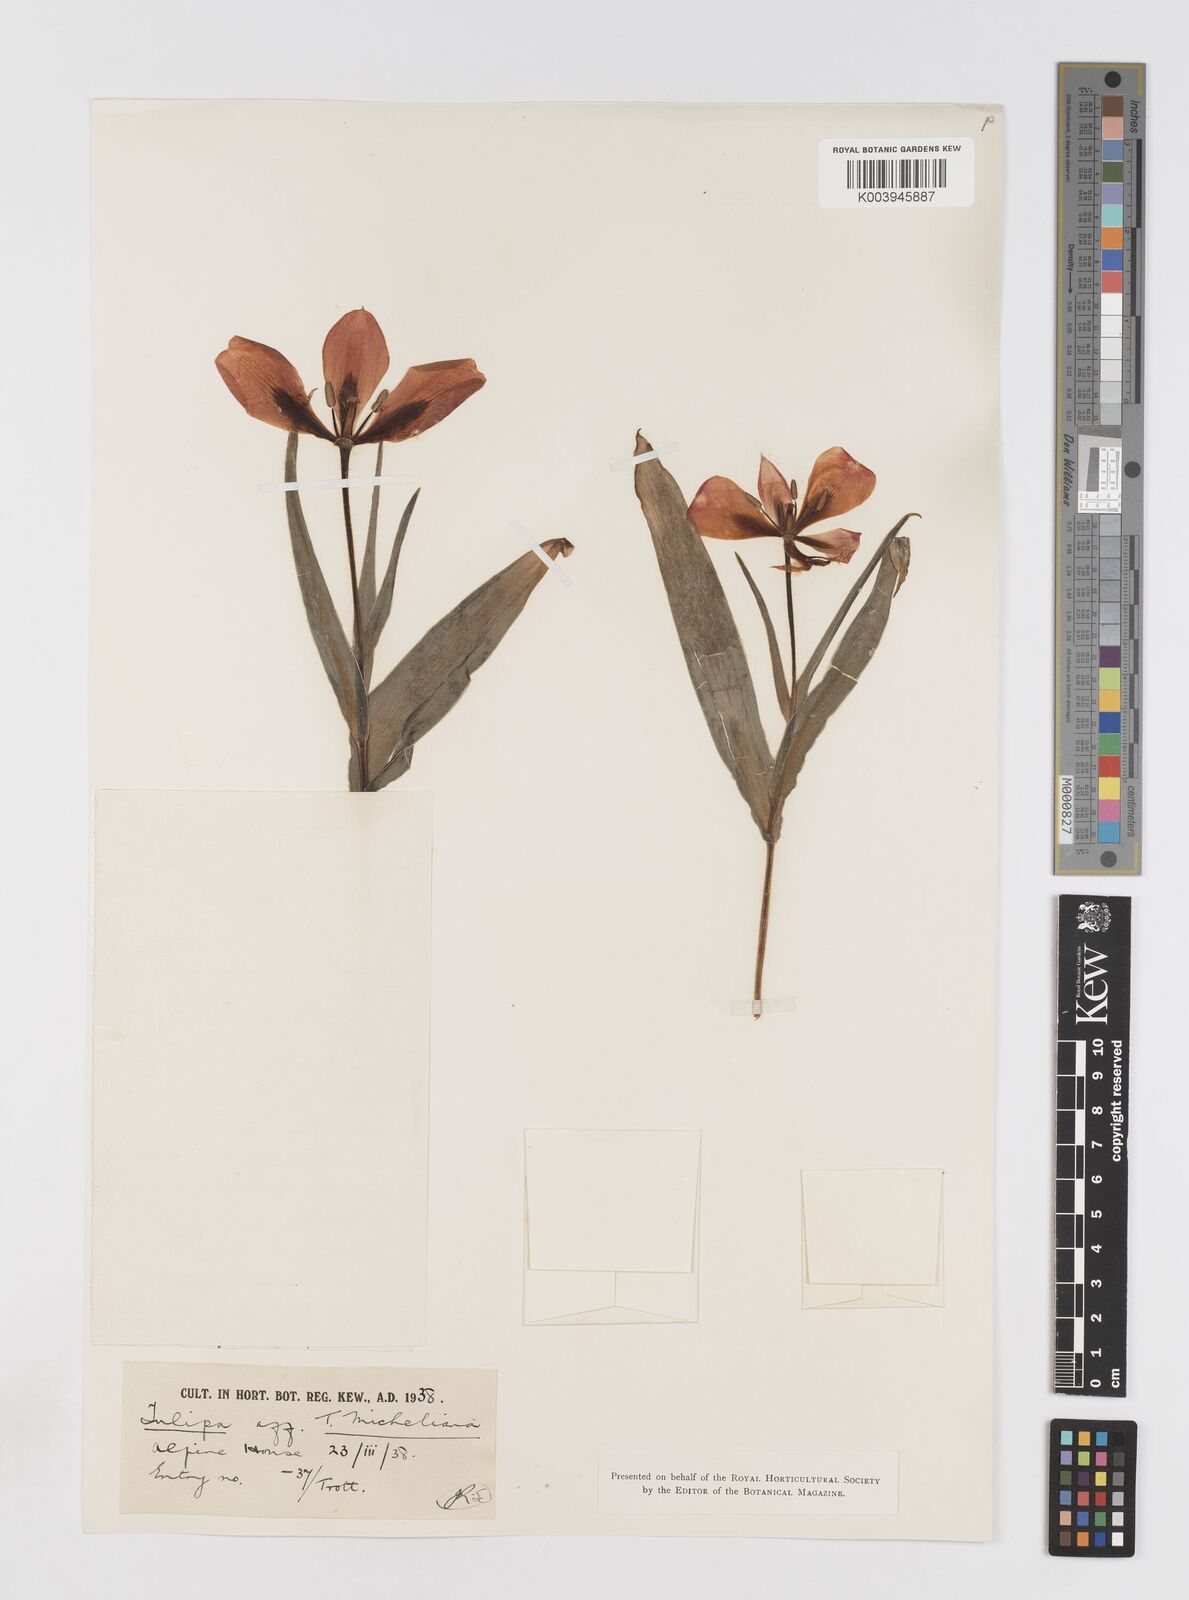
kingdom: Plantae
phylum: Tracheophyta
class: Liliopsida
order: Liliales
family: Liliaceae
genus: Tulipa
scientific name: Tulipa undulatifolia
